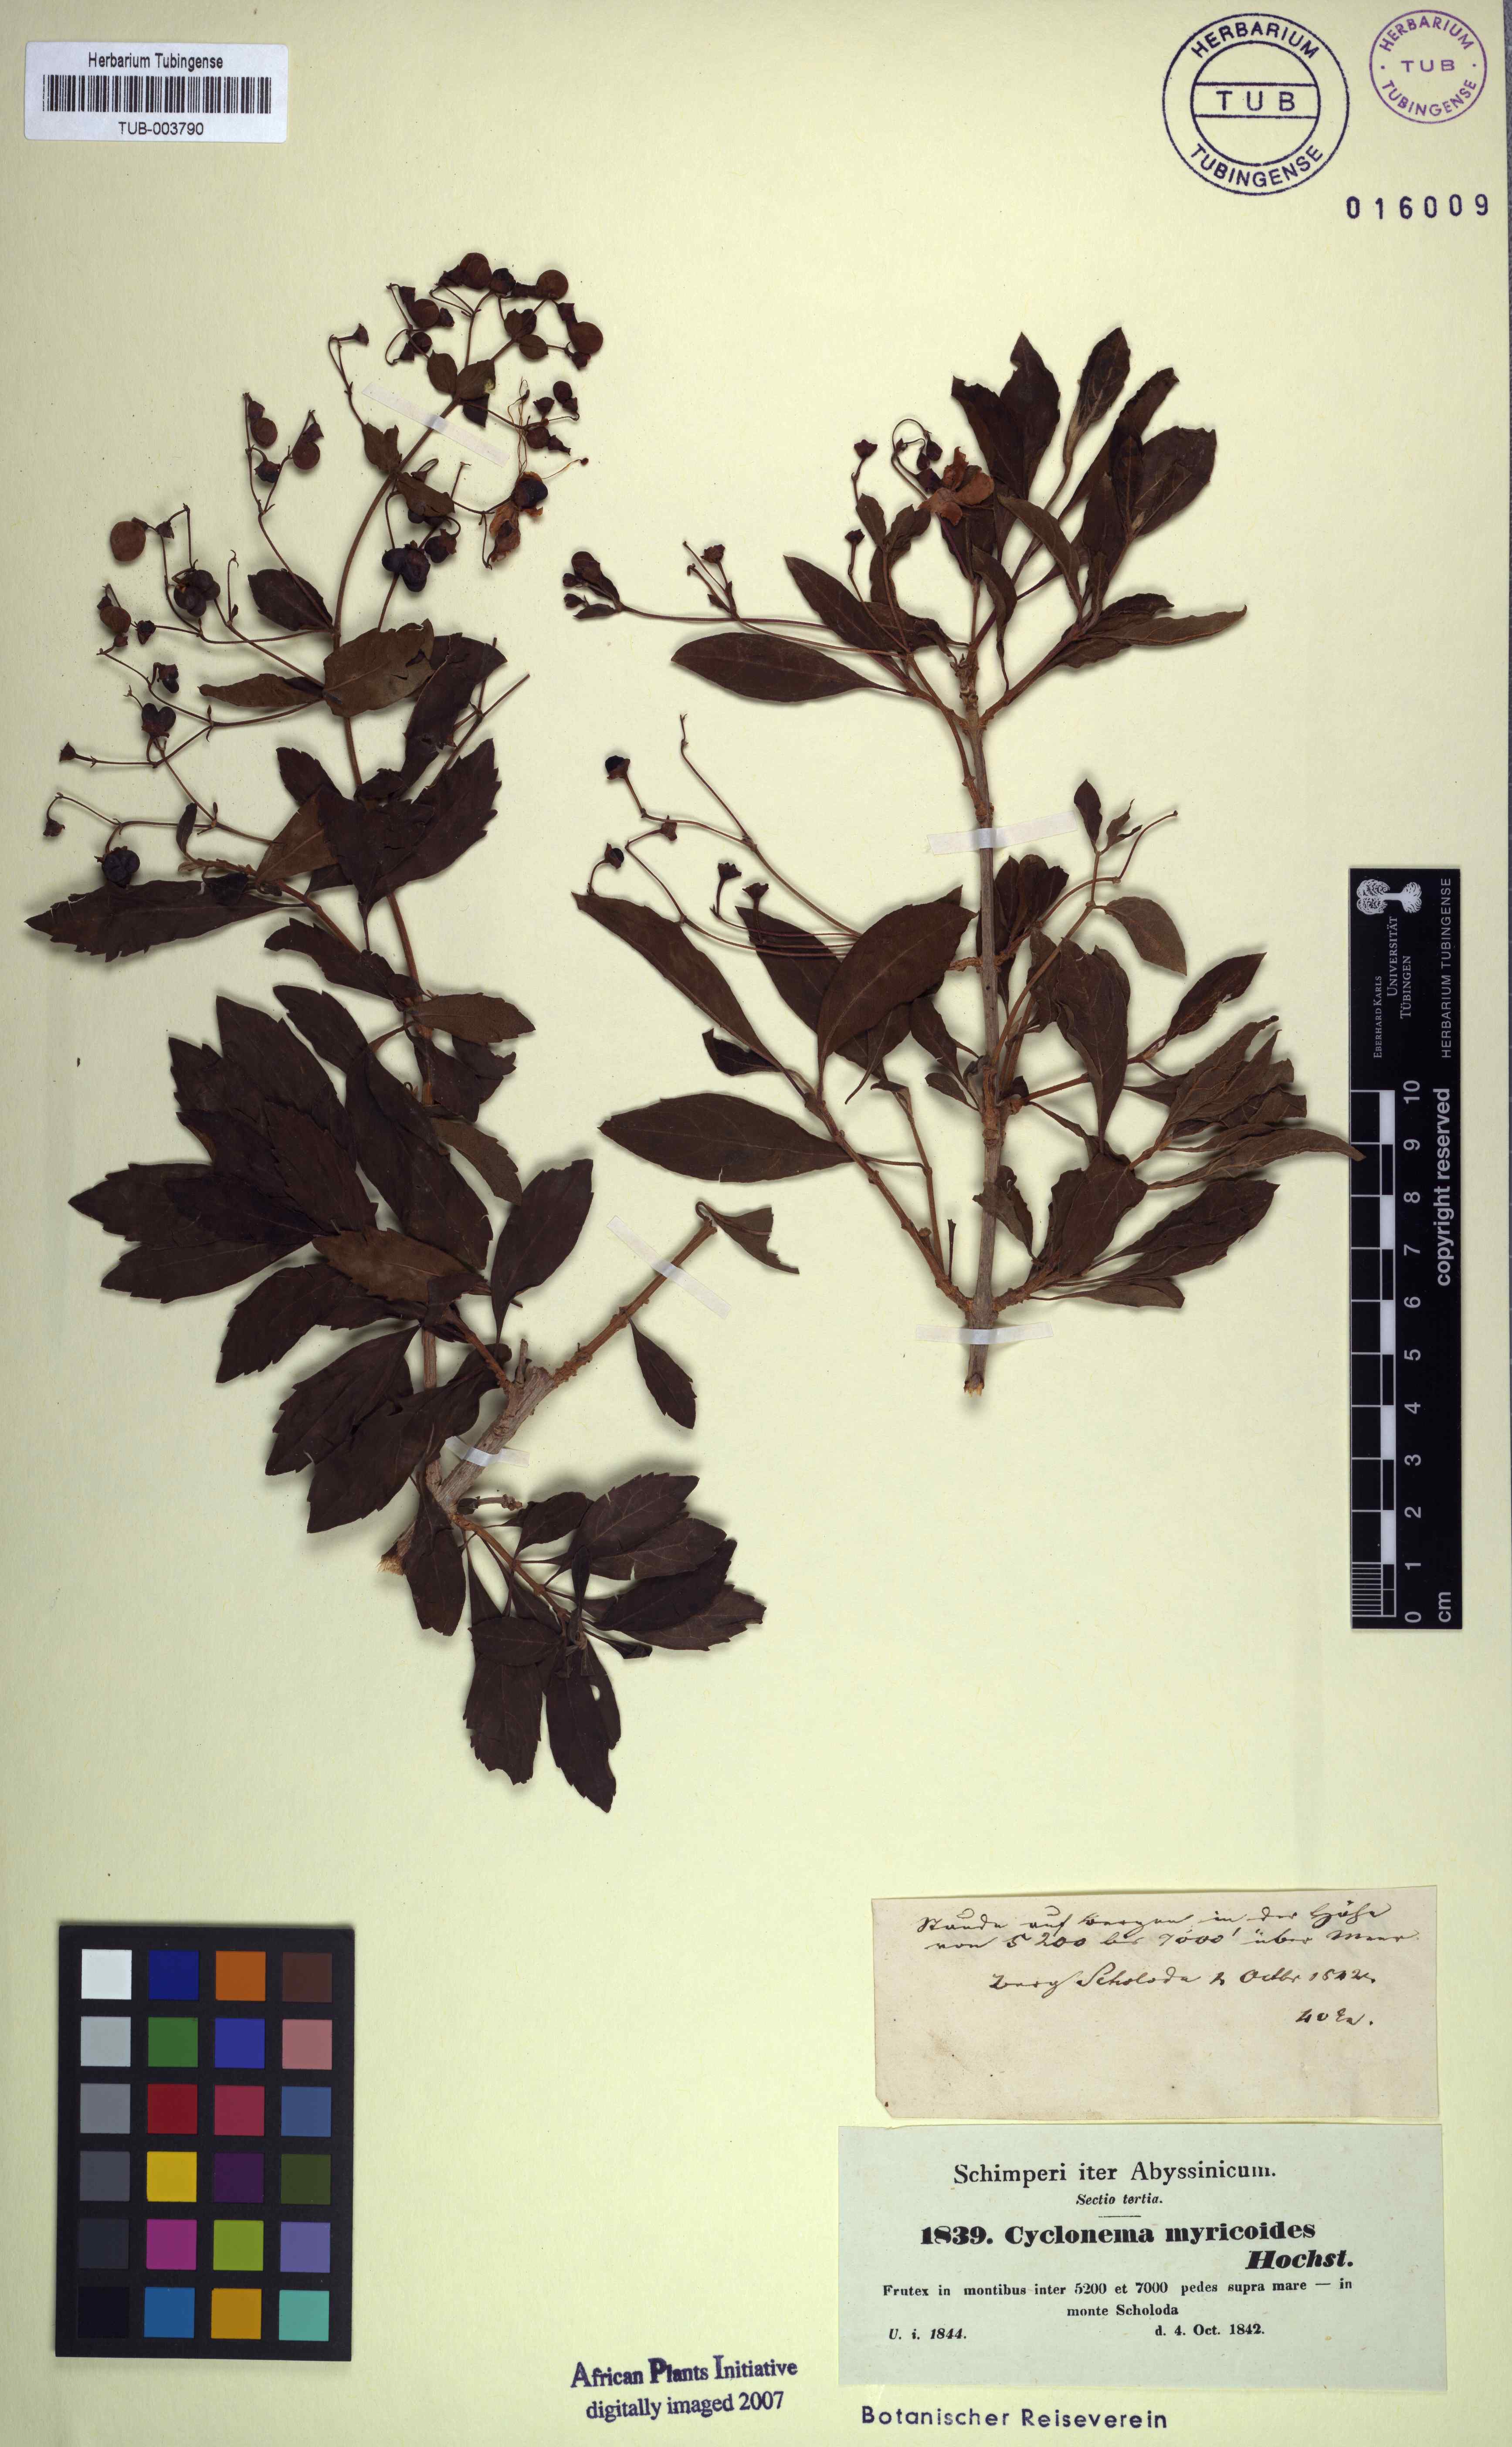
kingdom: Plantae
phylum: Tracheophyta
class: Magnoliopsida
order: Lamiales
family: Lamiaceae
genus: Rotheca
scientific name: Rotheca myricoides
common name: Cats-whiskers
